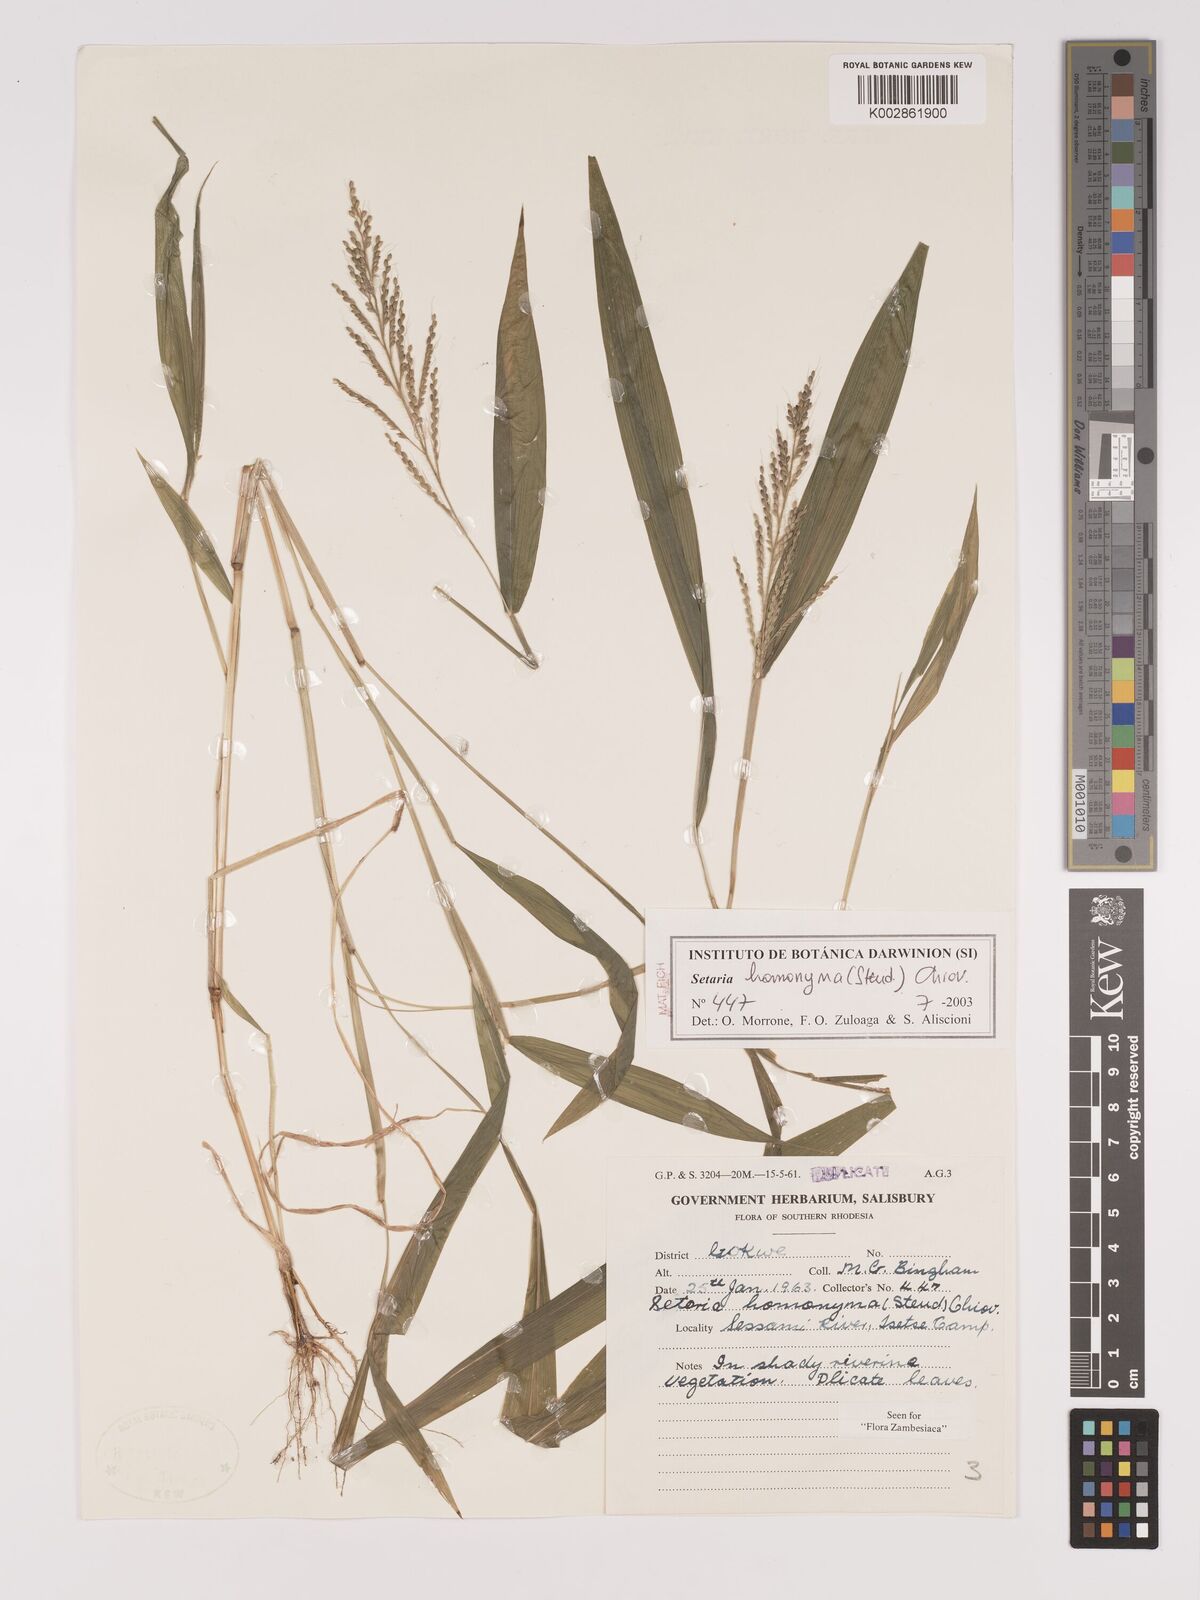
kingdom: Plantae
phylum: Tracheophyta
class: Liliopsida
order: Poales
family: Poaceae
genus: Setaria
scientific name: Setaria homonyma
